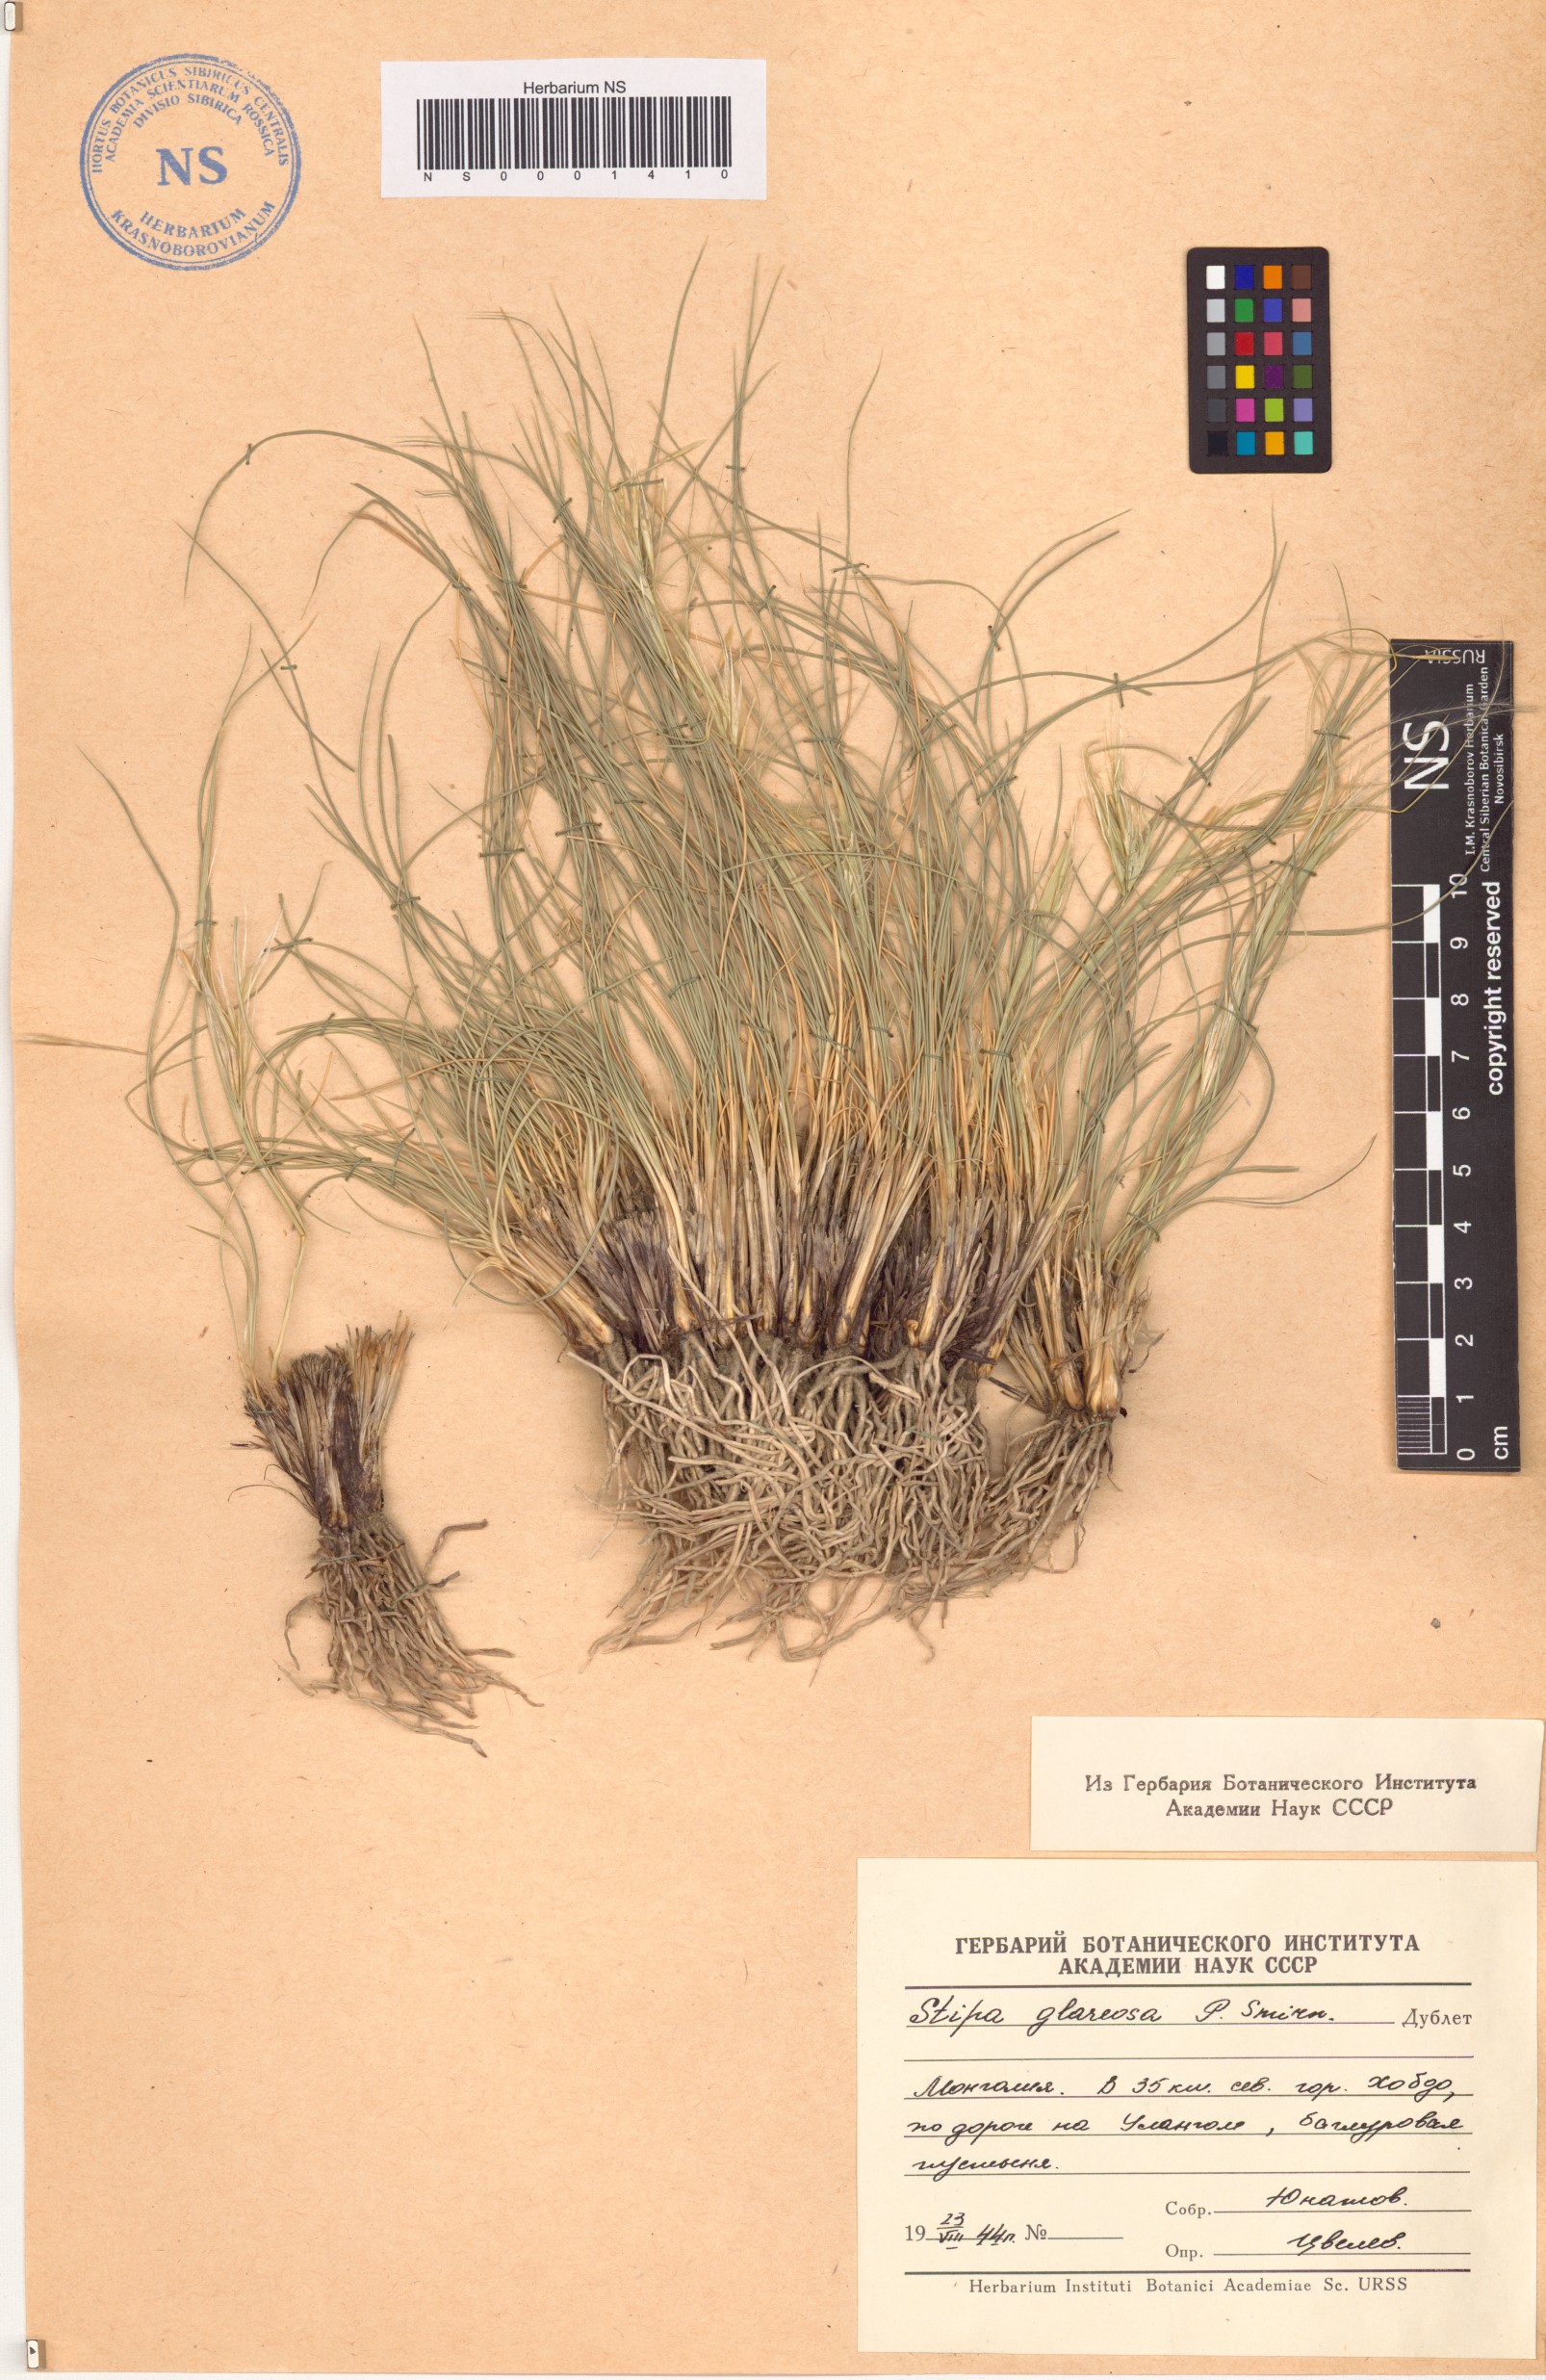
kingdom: Plantae
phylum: Tracheophyta
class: Liliopsida
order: Poales
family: Poaceae
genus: Stipa
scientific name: Stipa glareosa
